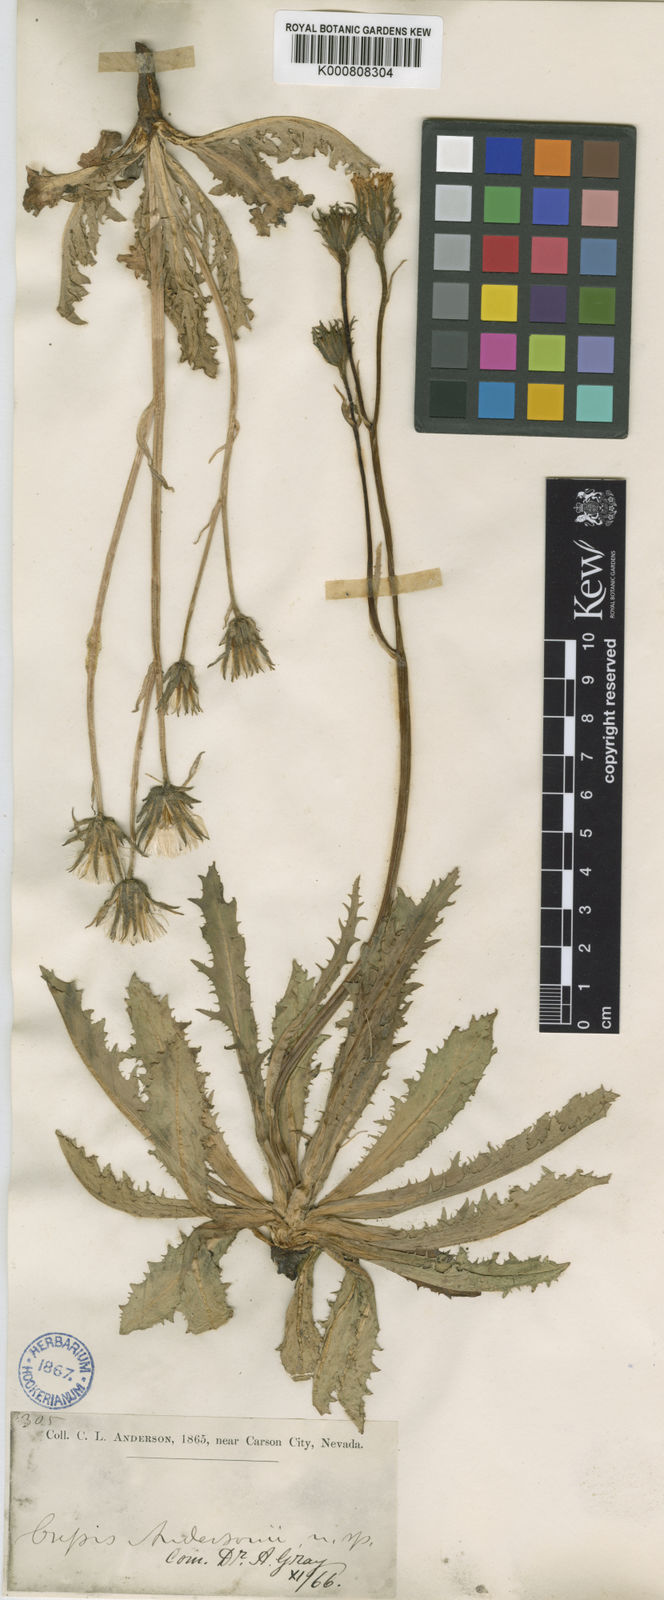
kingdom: Plantae
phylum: Tracheophyta
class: Magnoliopsida
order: Asterales
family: Asteraceae
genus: Crepis
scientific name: Crepis runcinata
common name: Dandelion hawksbeard
